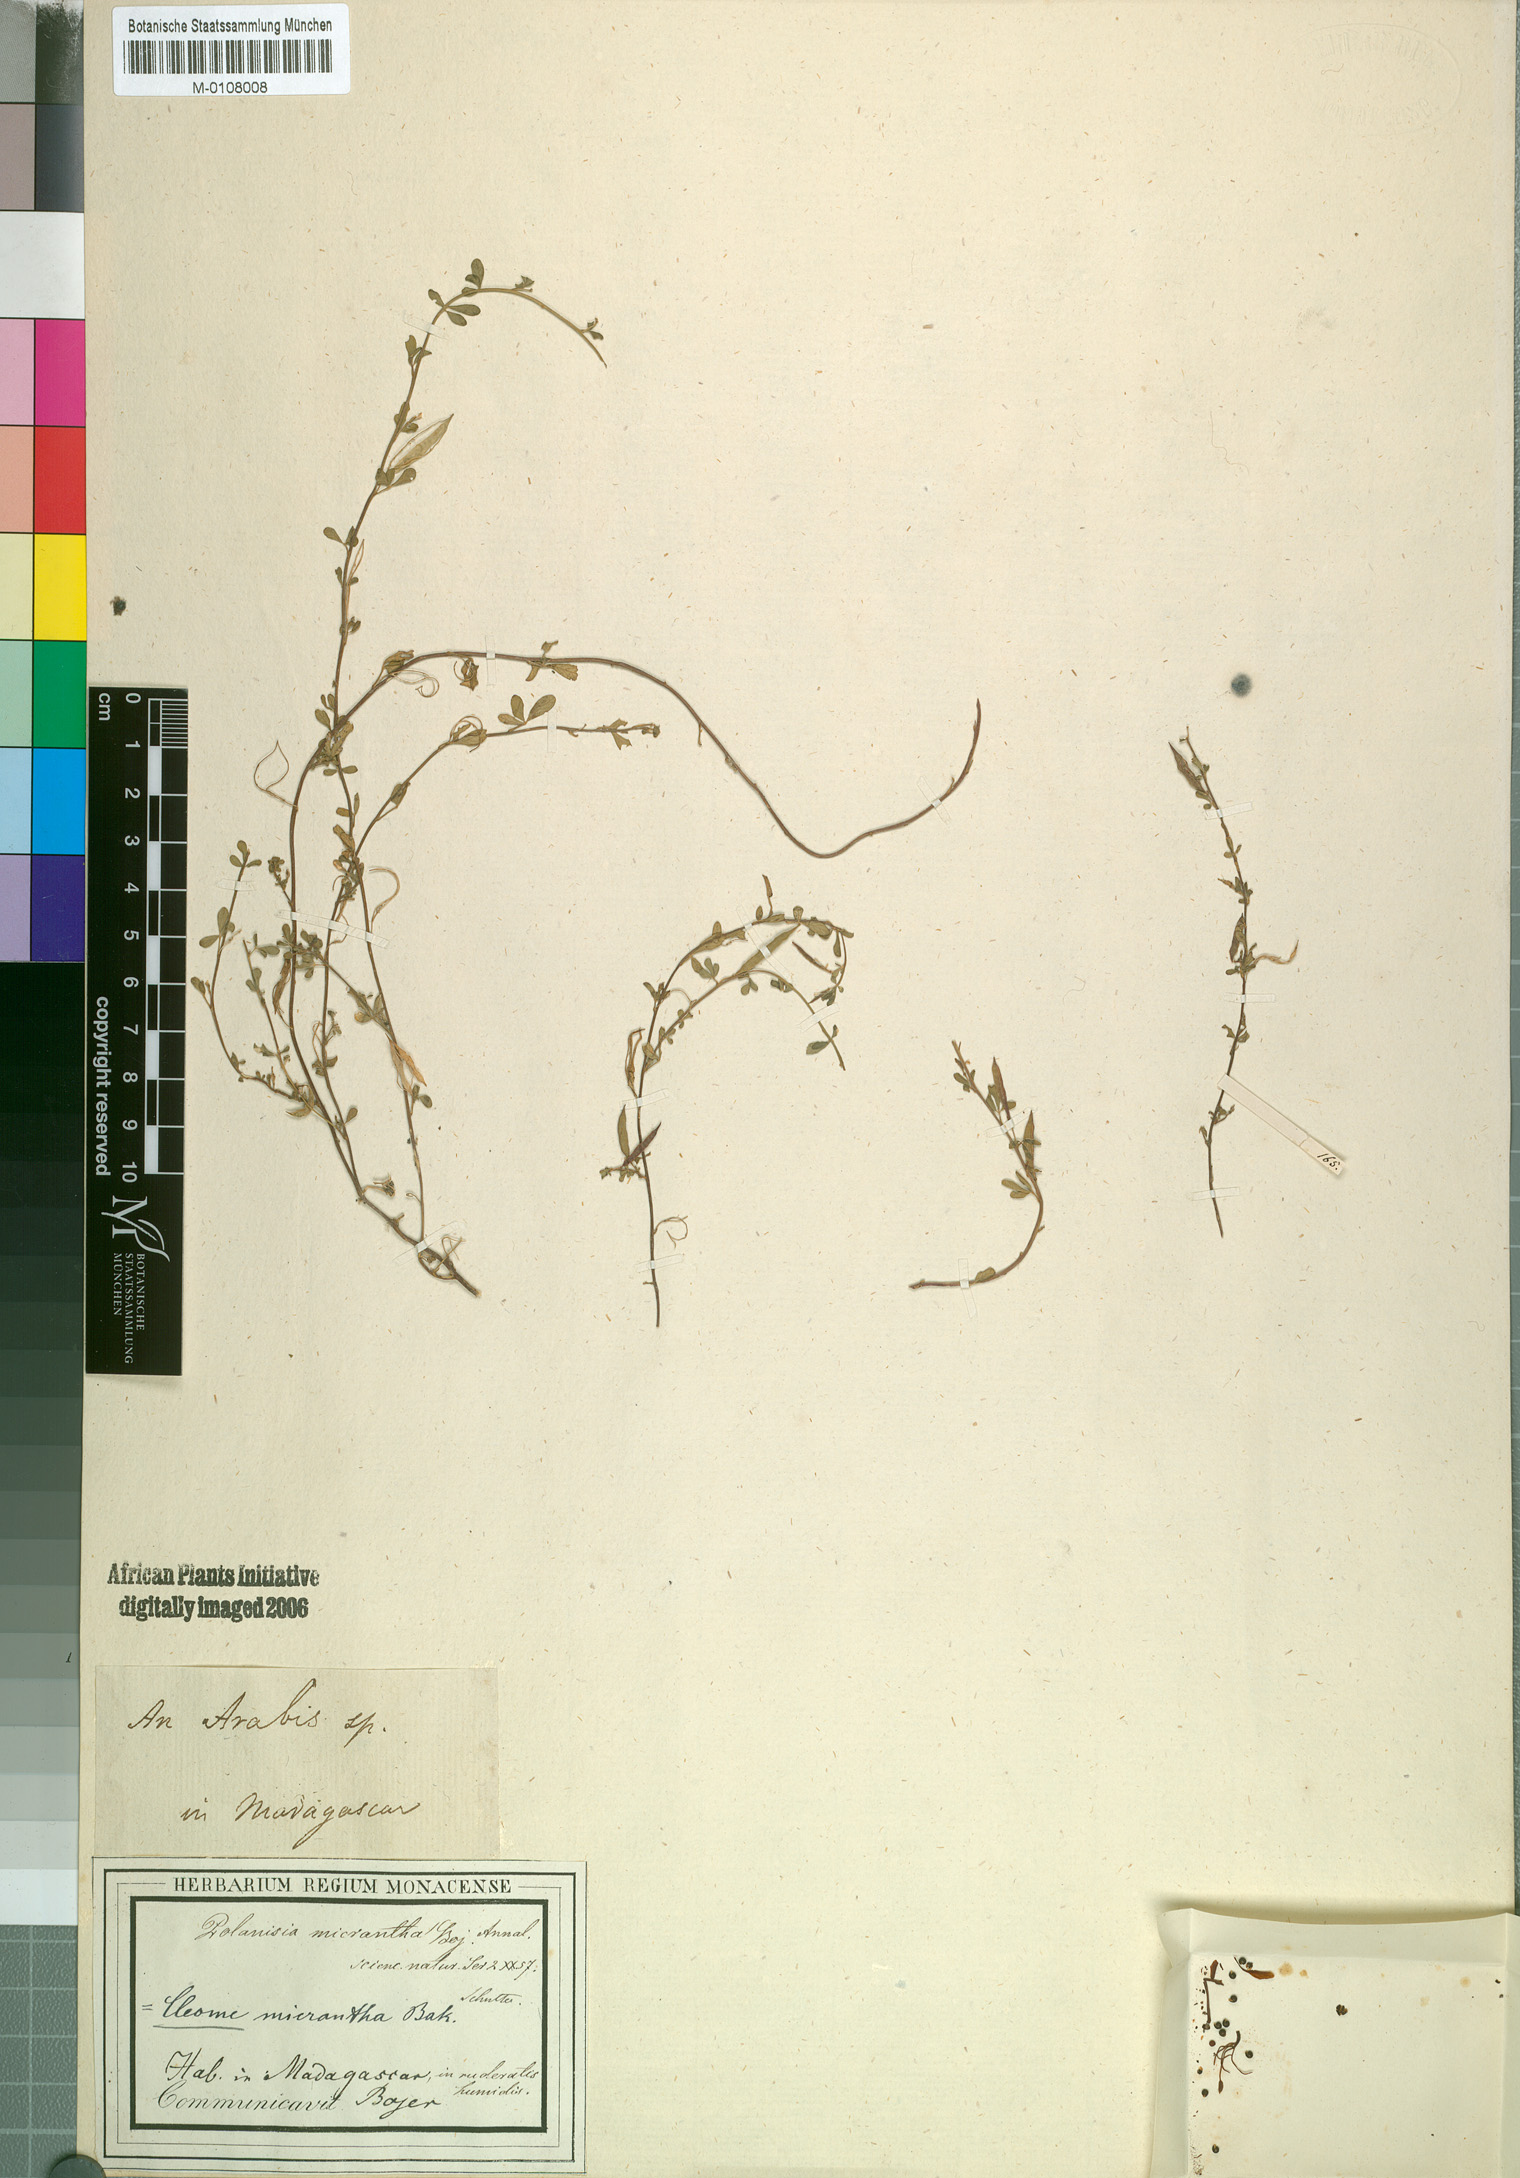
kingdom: Plantae
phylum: Tracheophyta
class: Magnoliopsida
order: Brassicales
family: Cleomaceae
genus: Sieruela
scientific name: Sieruela micrantha
